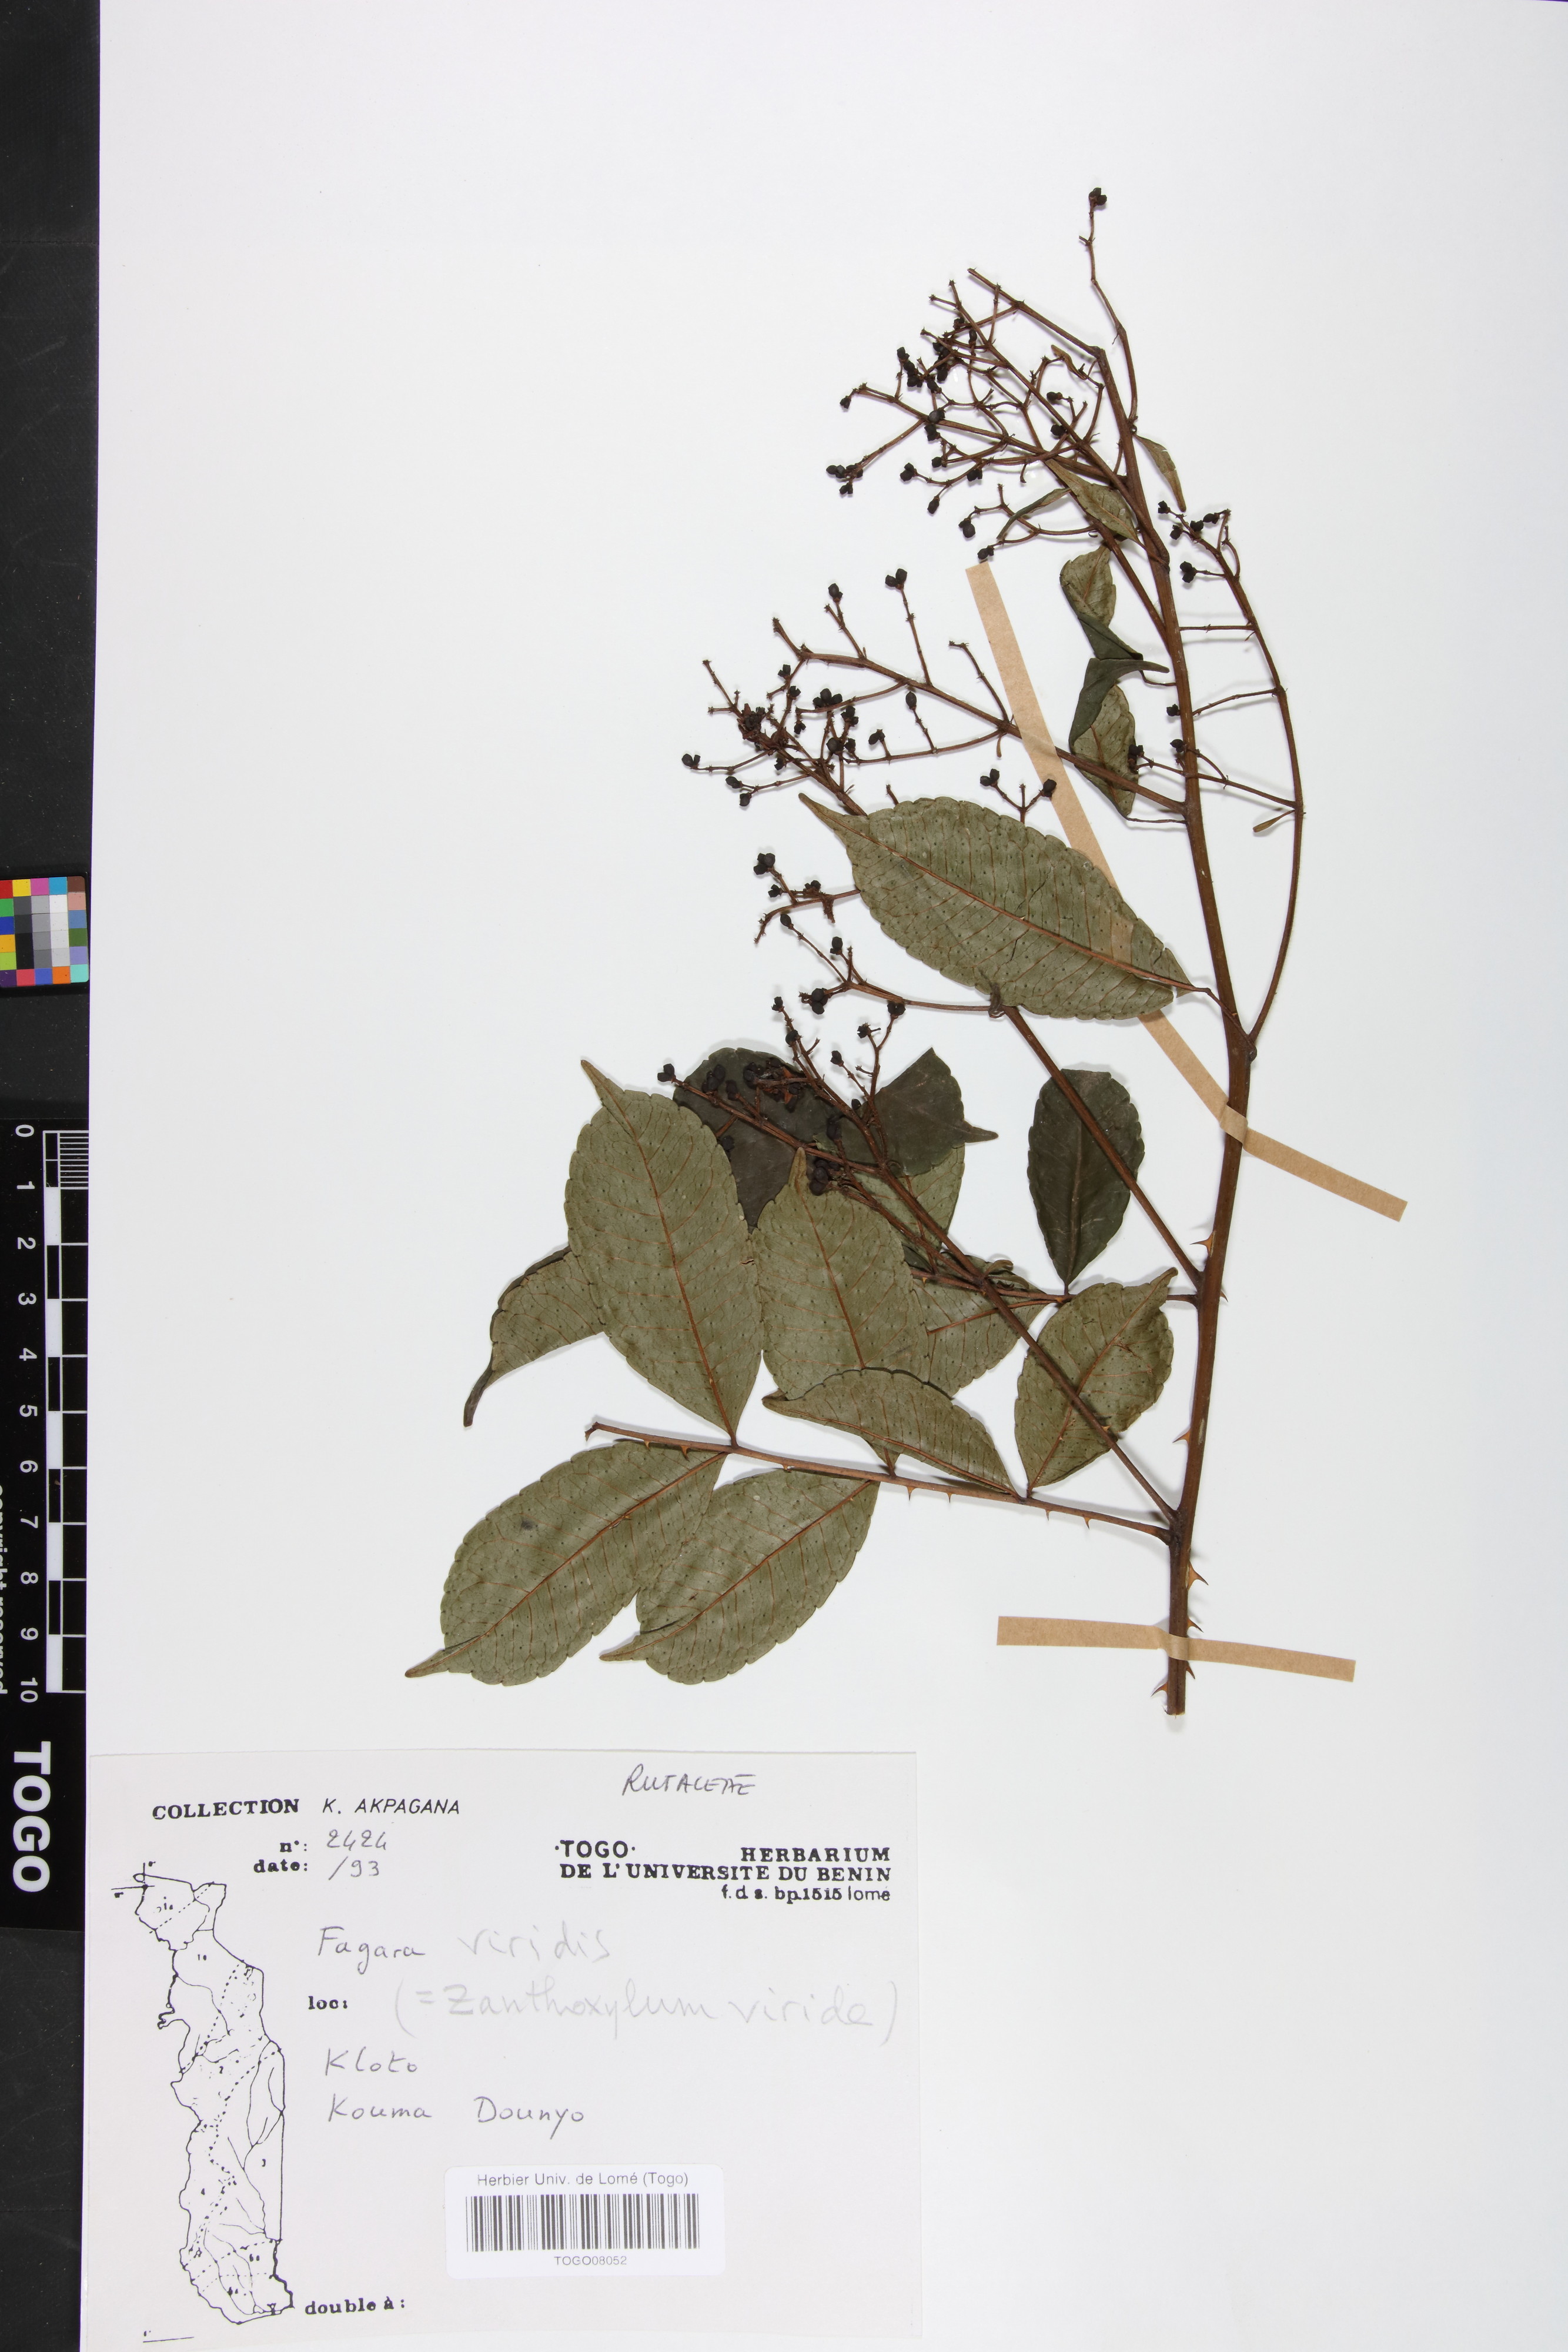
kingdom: Plantae
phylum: Tracheophyta
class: Magnoliopsida
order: Sapindales
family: Rutaceae
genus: Zanthoxylum
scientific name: Zanthoxylum viride
